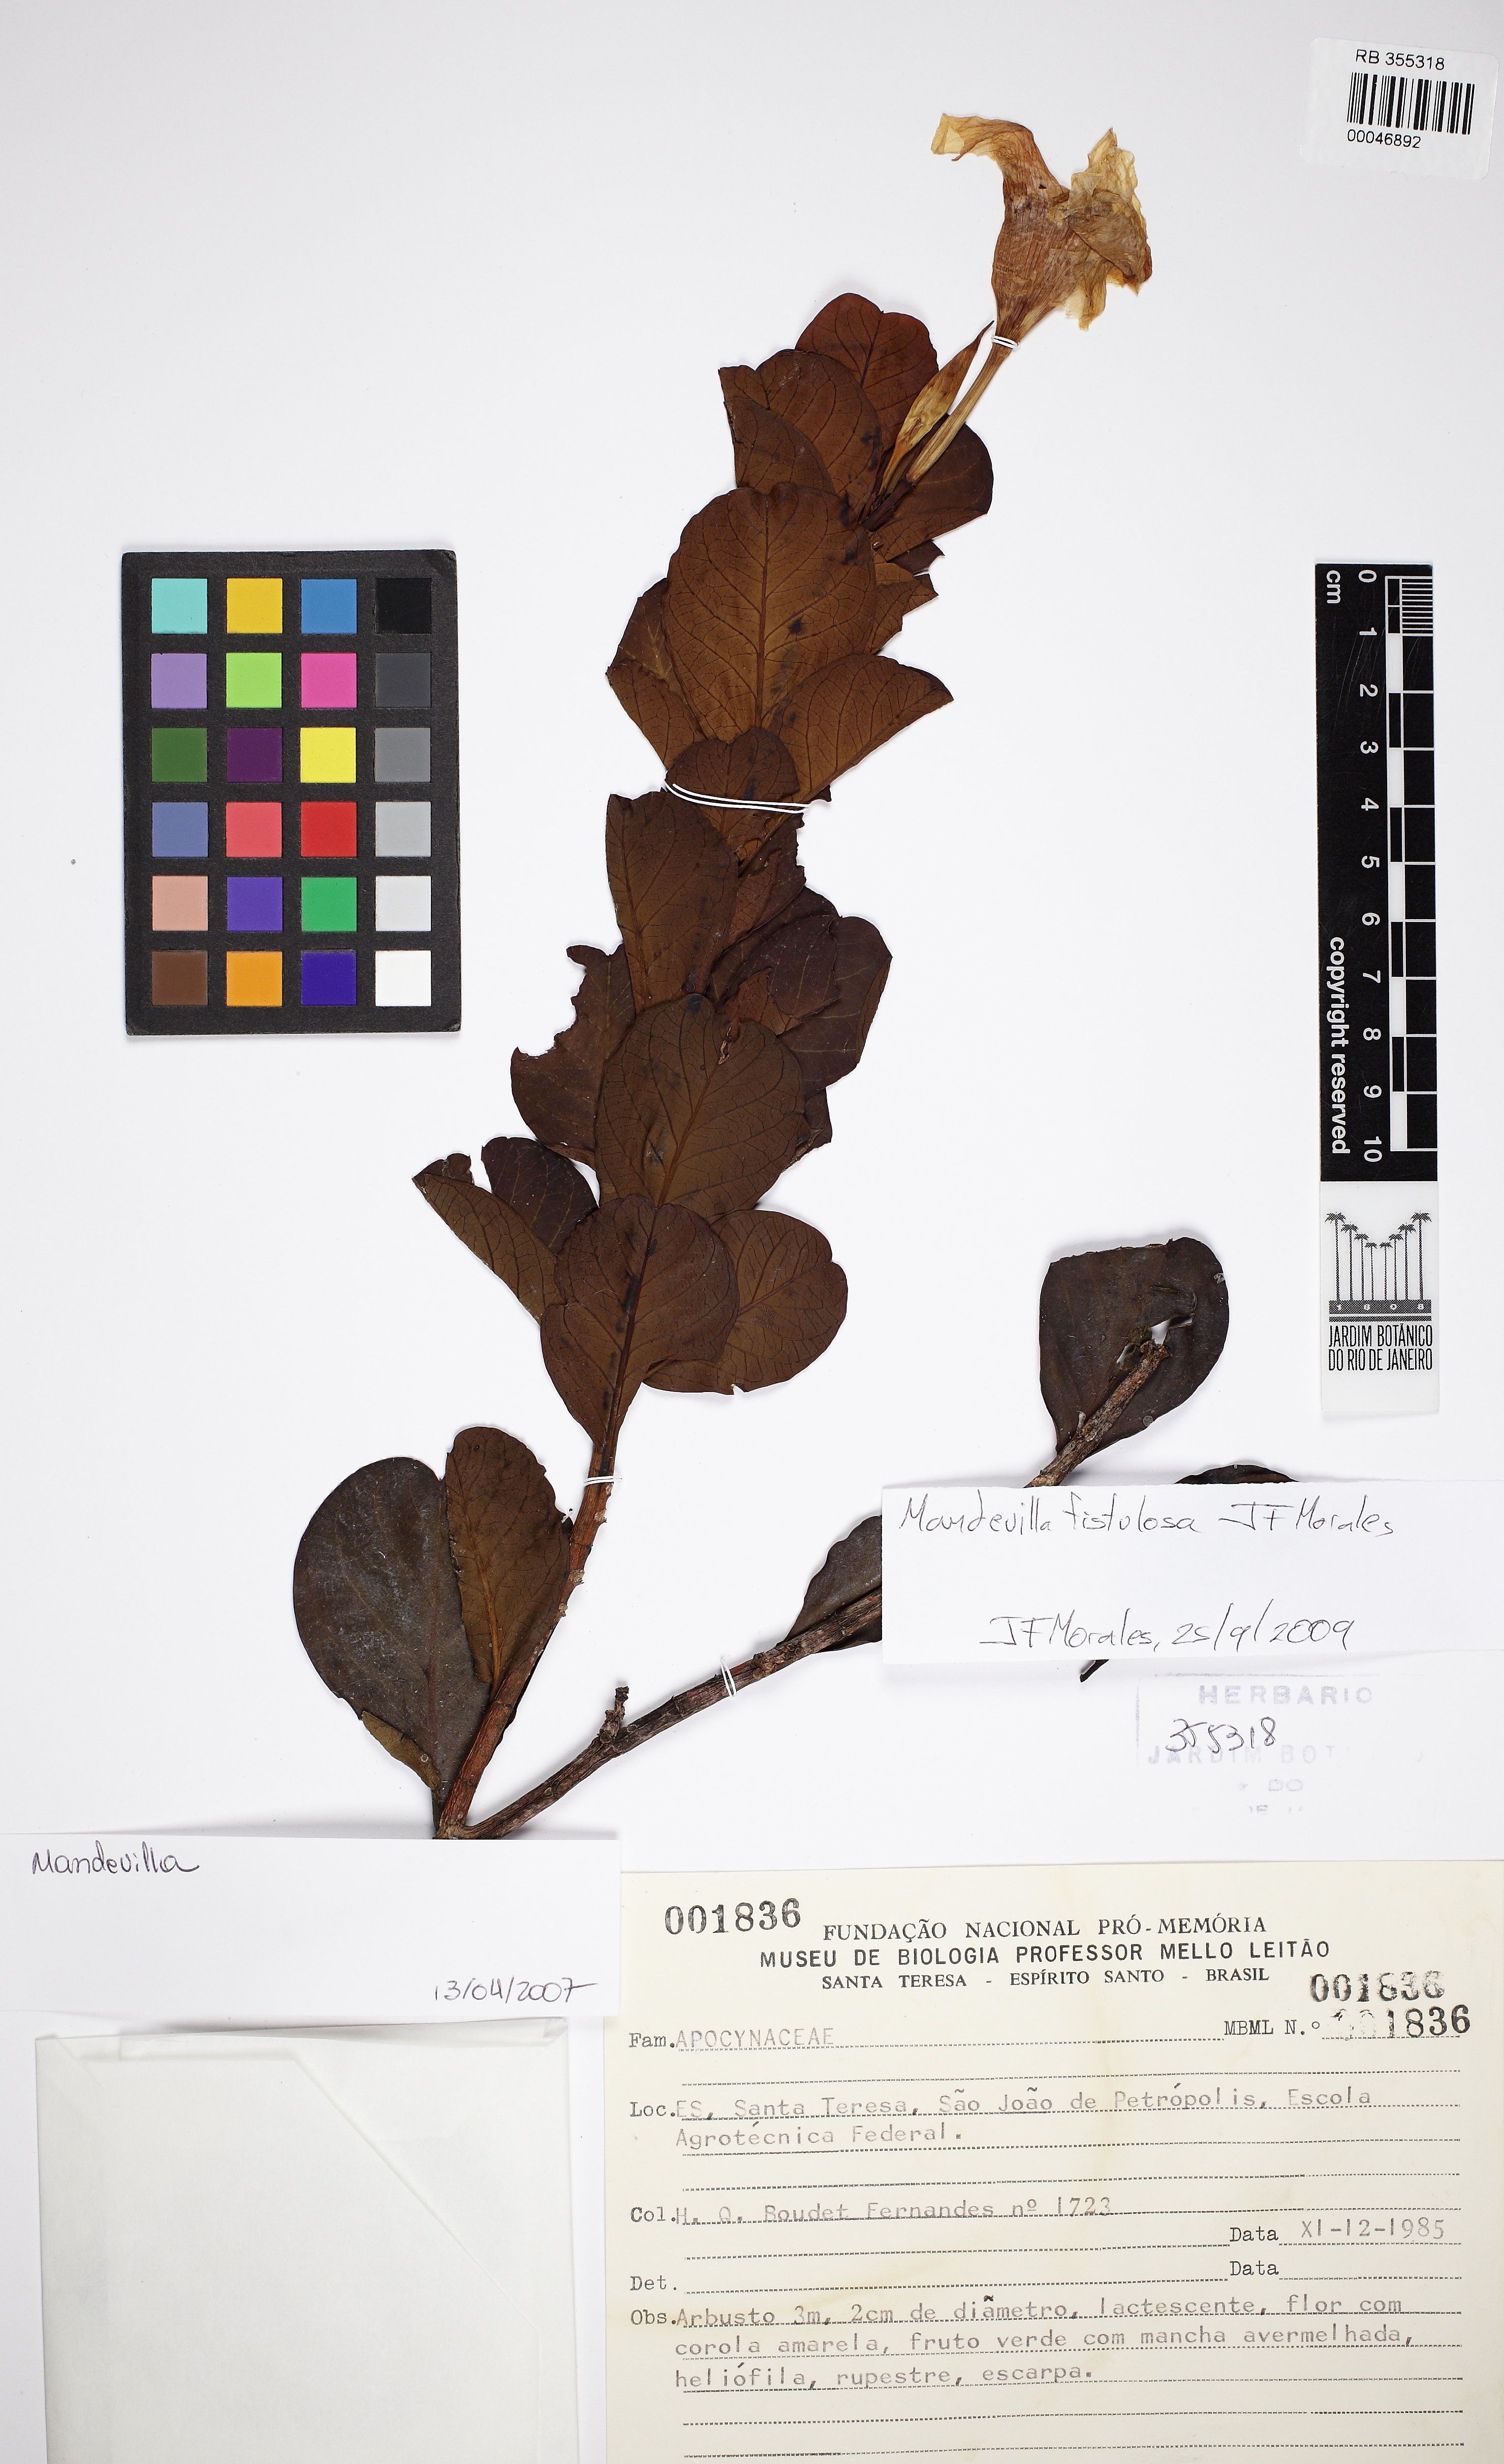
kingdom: Plantae
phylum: Tracheophyta
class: Magnoliopsida
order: Gentianales
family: Apocynaceae
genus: Mandevilla
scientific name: Mandevilla fistulosa
